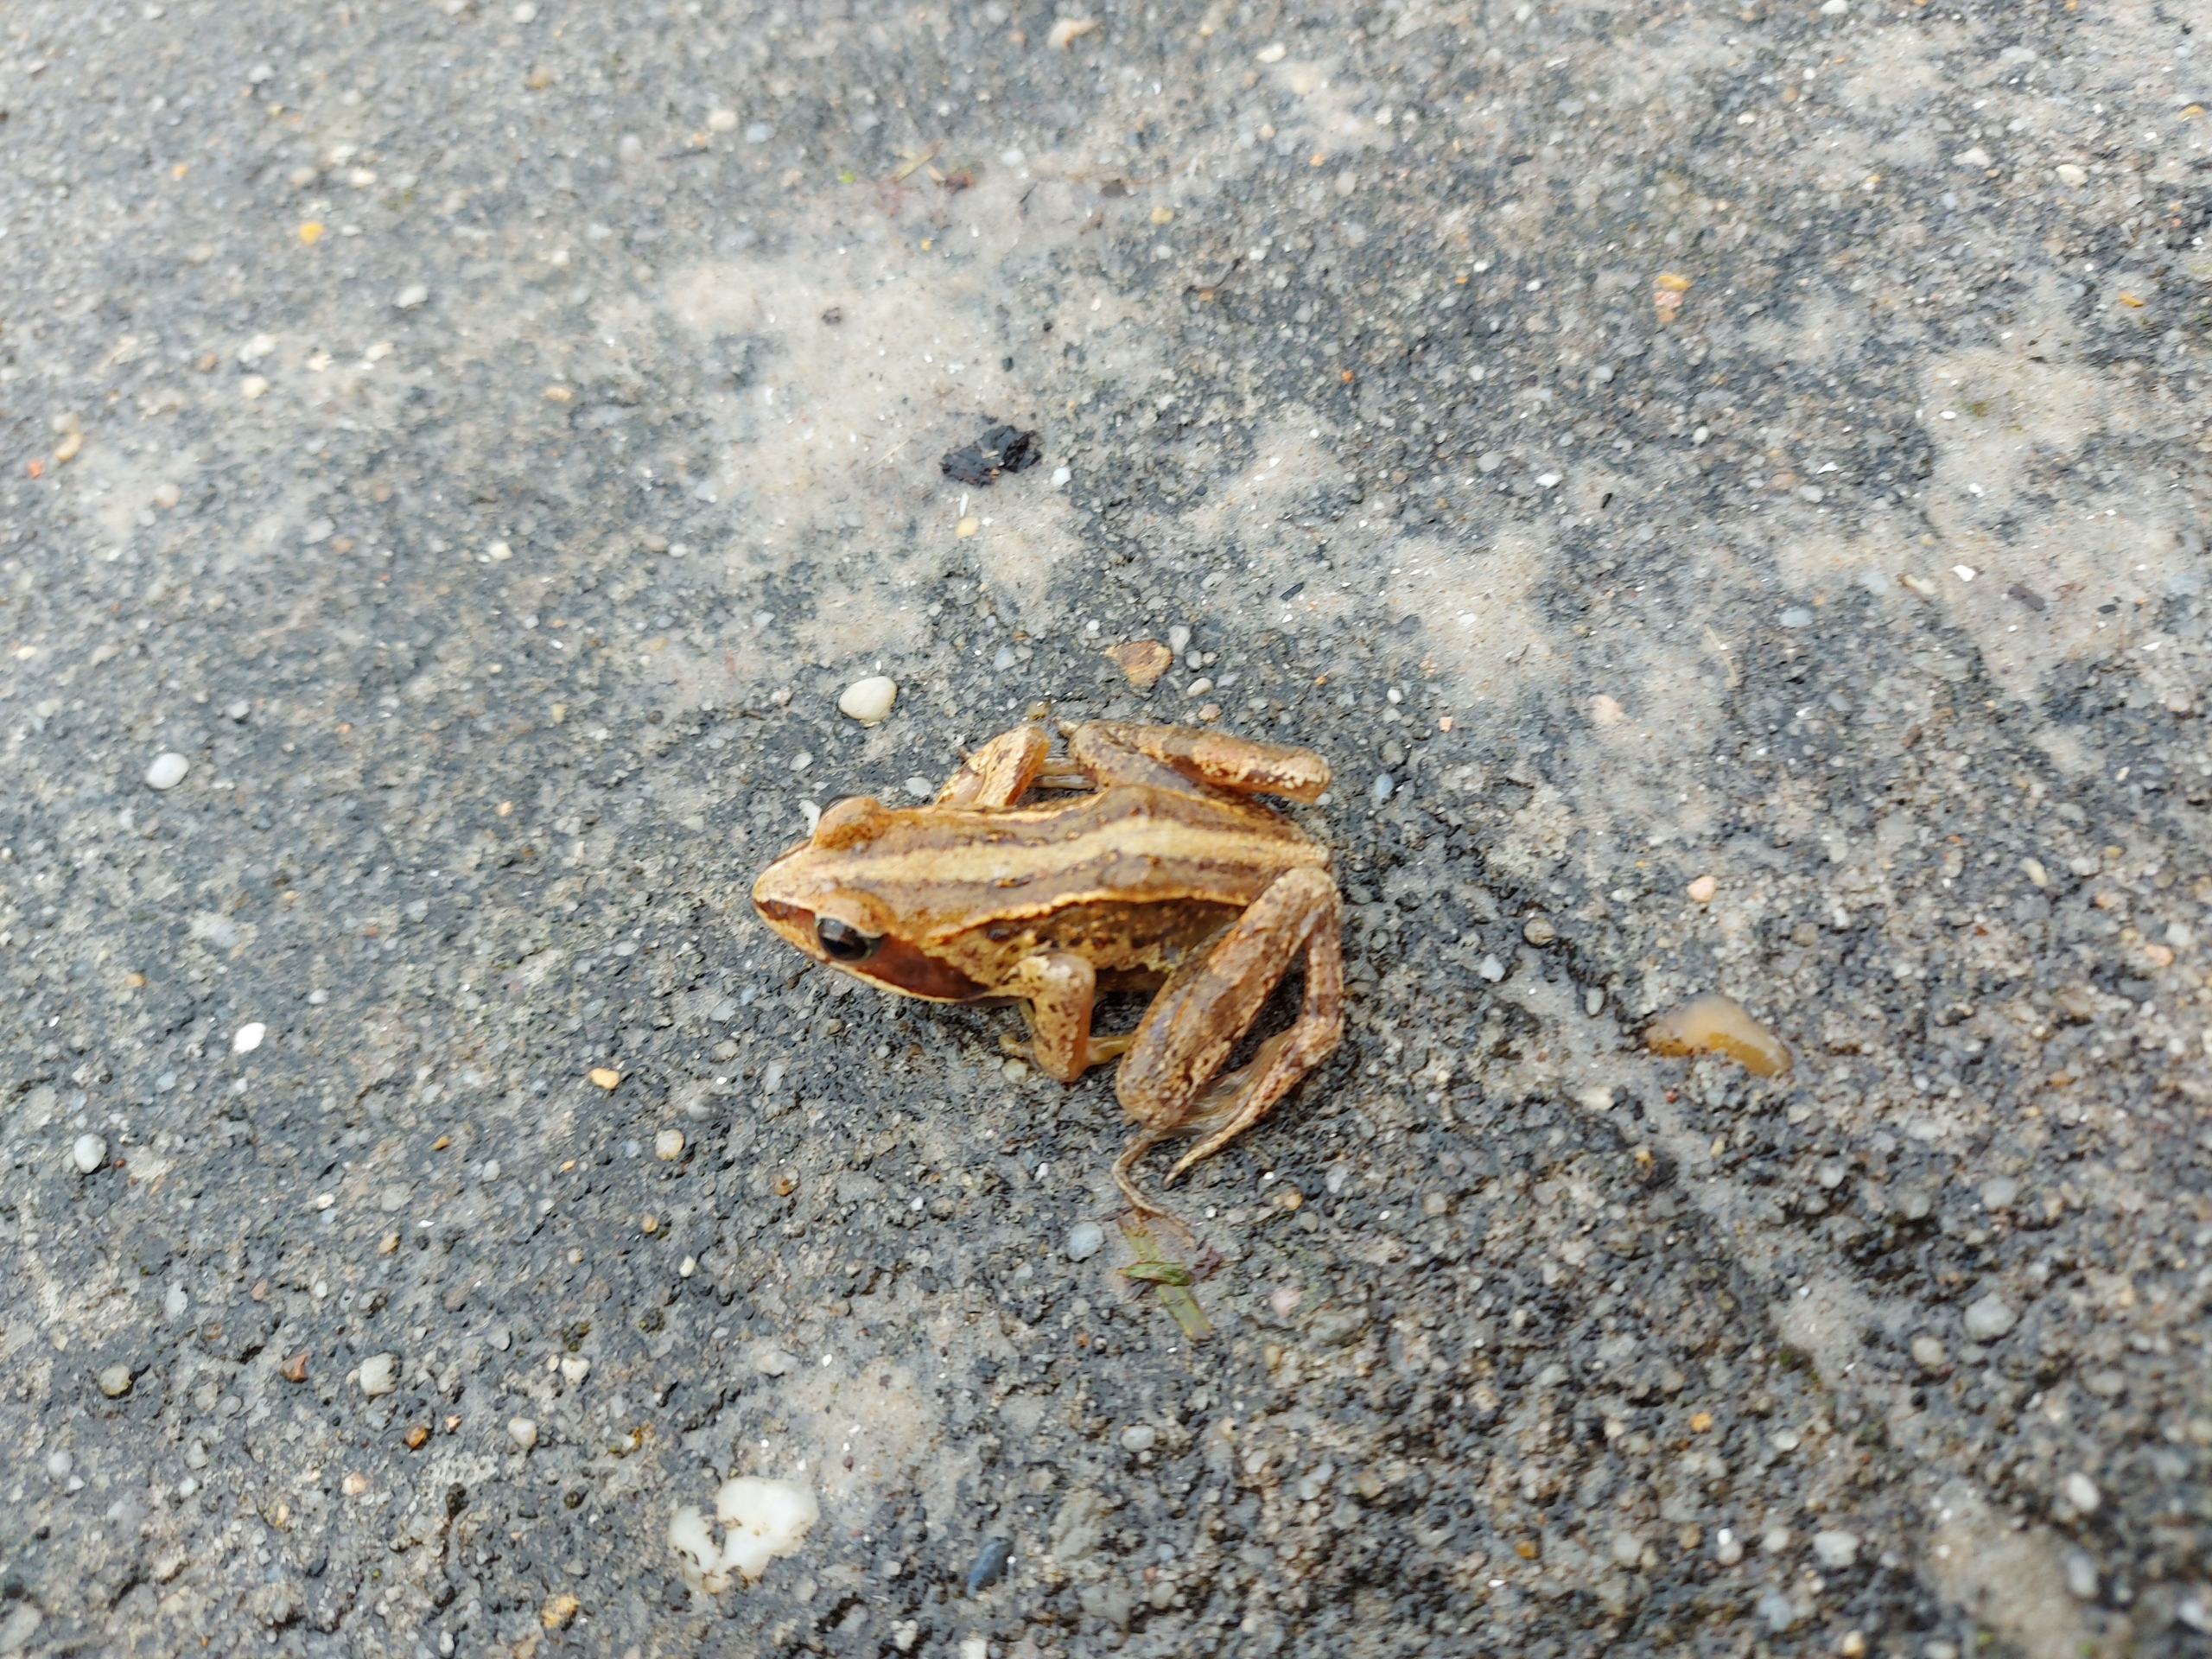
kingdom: Animalia
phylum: Chordata
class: Amphibia
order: Anura
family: Ranidae
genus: Rana
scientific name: Rana arvalis
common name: Spidssnudet frø
